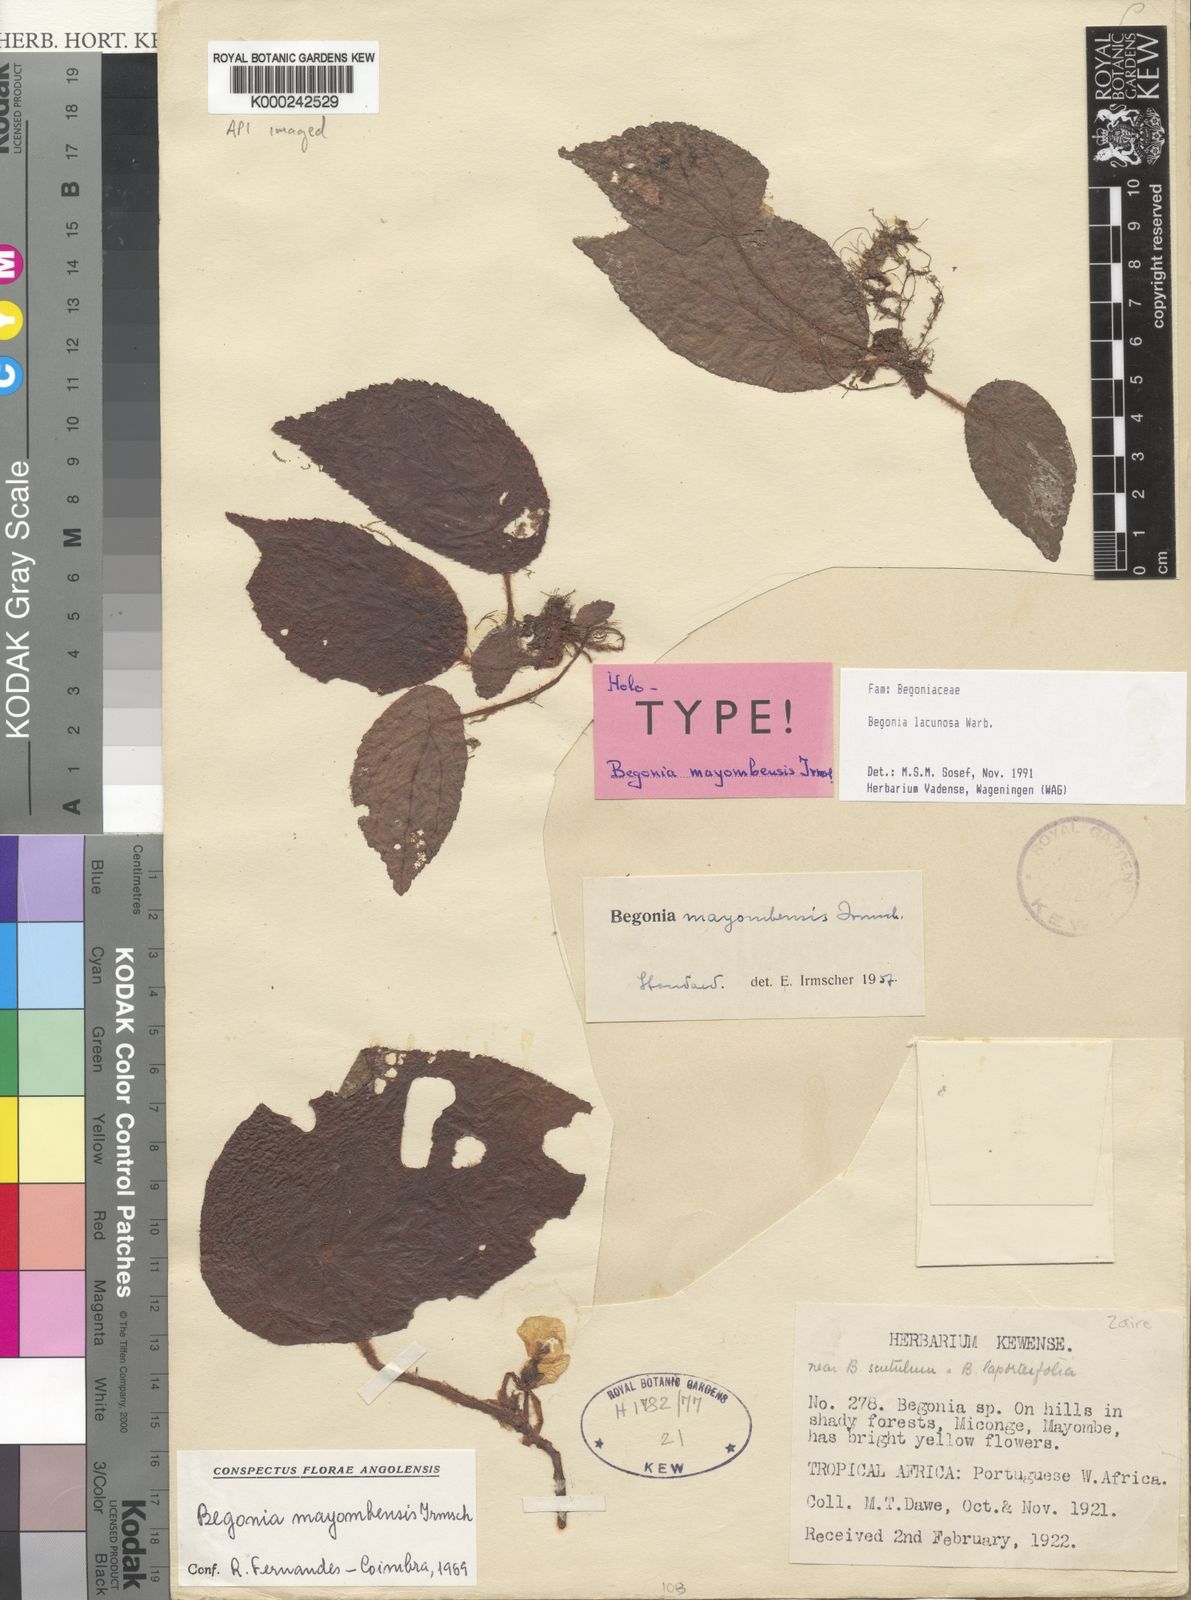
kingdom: Plantae
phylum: Tracheophyta
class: Magnoliopsida
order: Cucurbitales
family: Begoniaceae
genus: Begonia
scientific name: Begonia lacunosa
